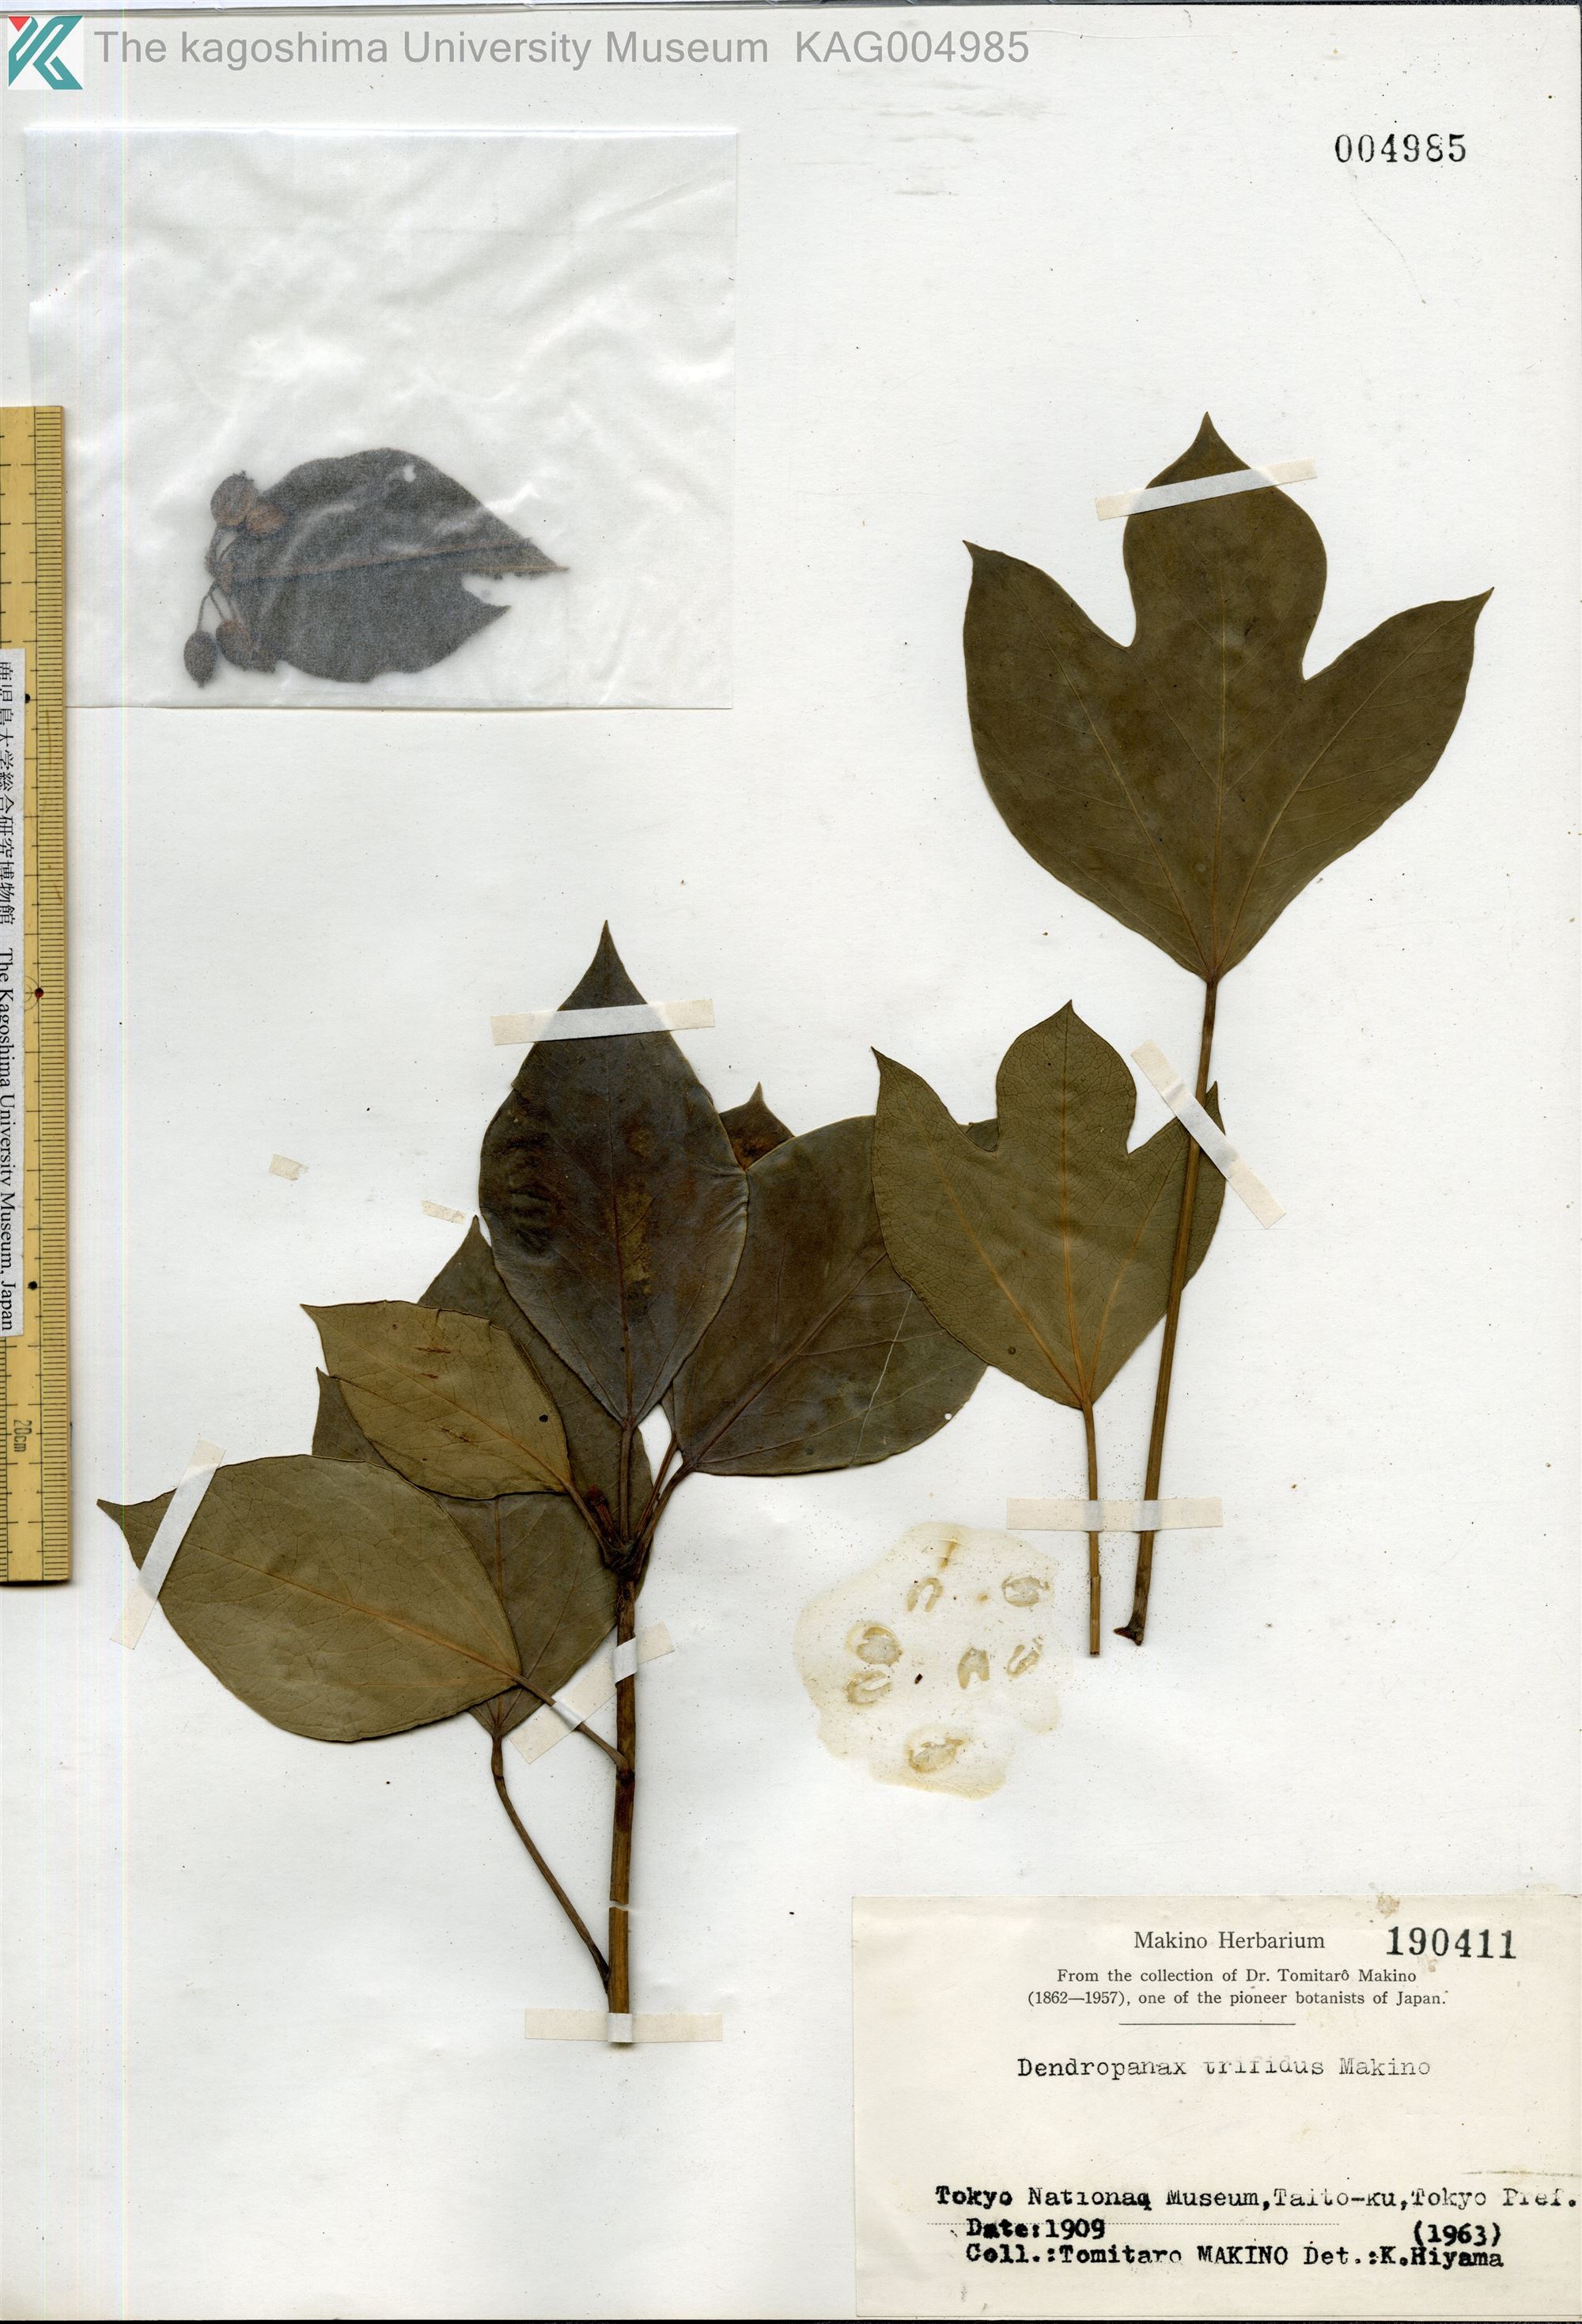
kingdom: Plantae
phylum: Tracheophyta
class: Magnoliopsida
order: Apiales
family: Araliaceae
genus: Dendropanax
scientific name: Dendropanax trifidus
